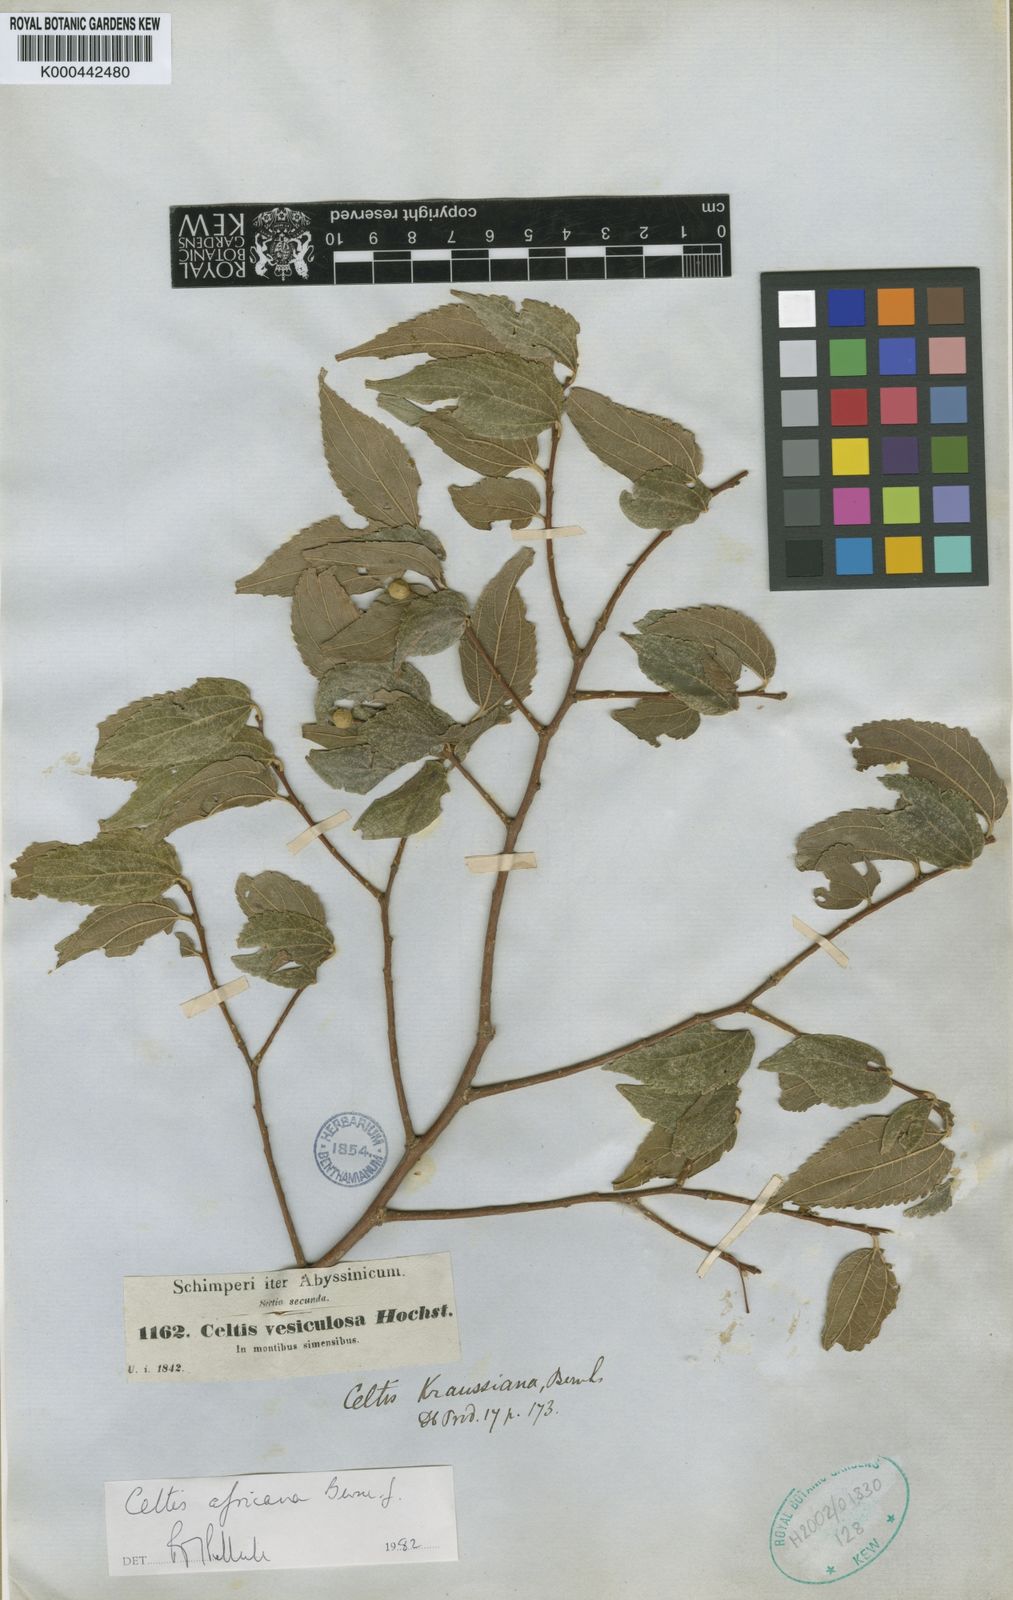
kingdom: Plantae
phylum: Tracheophyta
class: Magnoliopsida
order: Rosales
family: Cannabaceae
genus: Celtis
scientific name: Celtis africana
